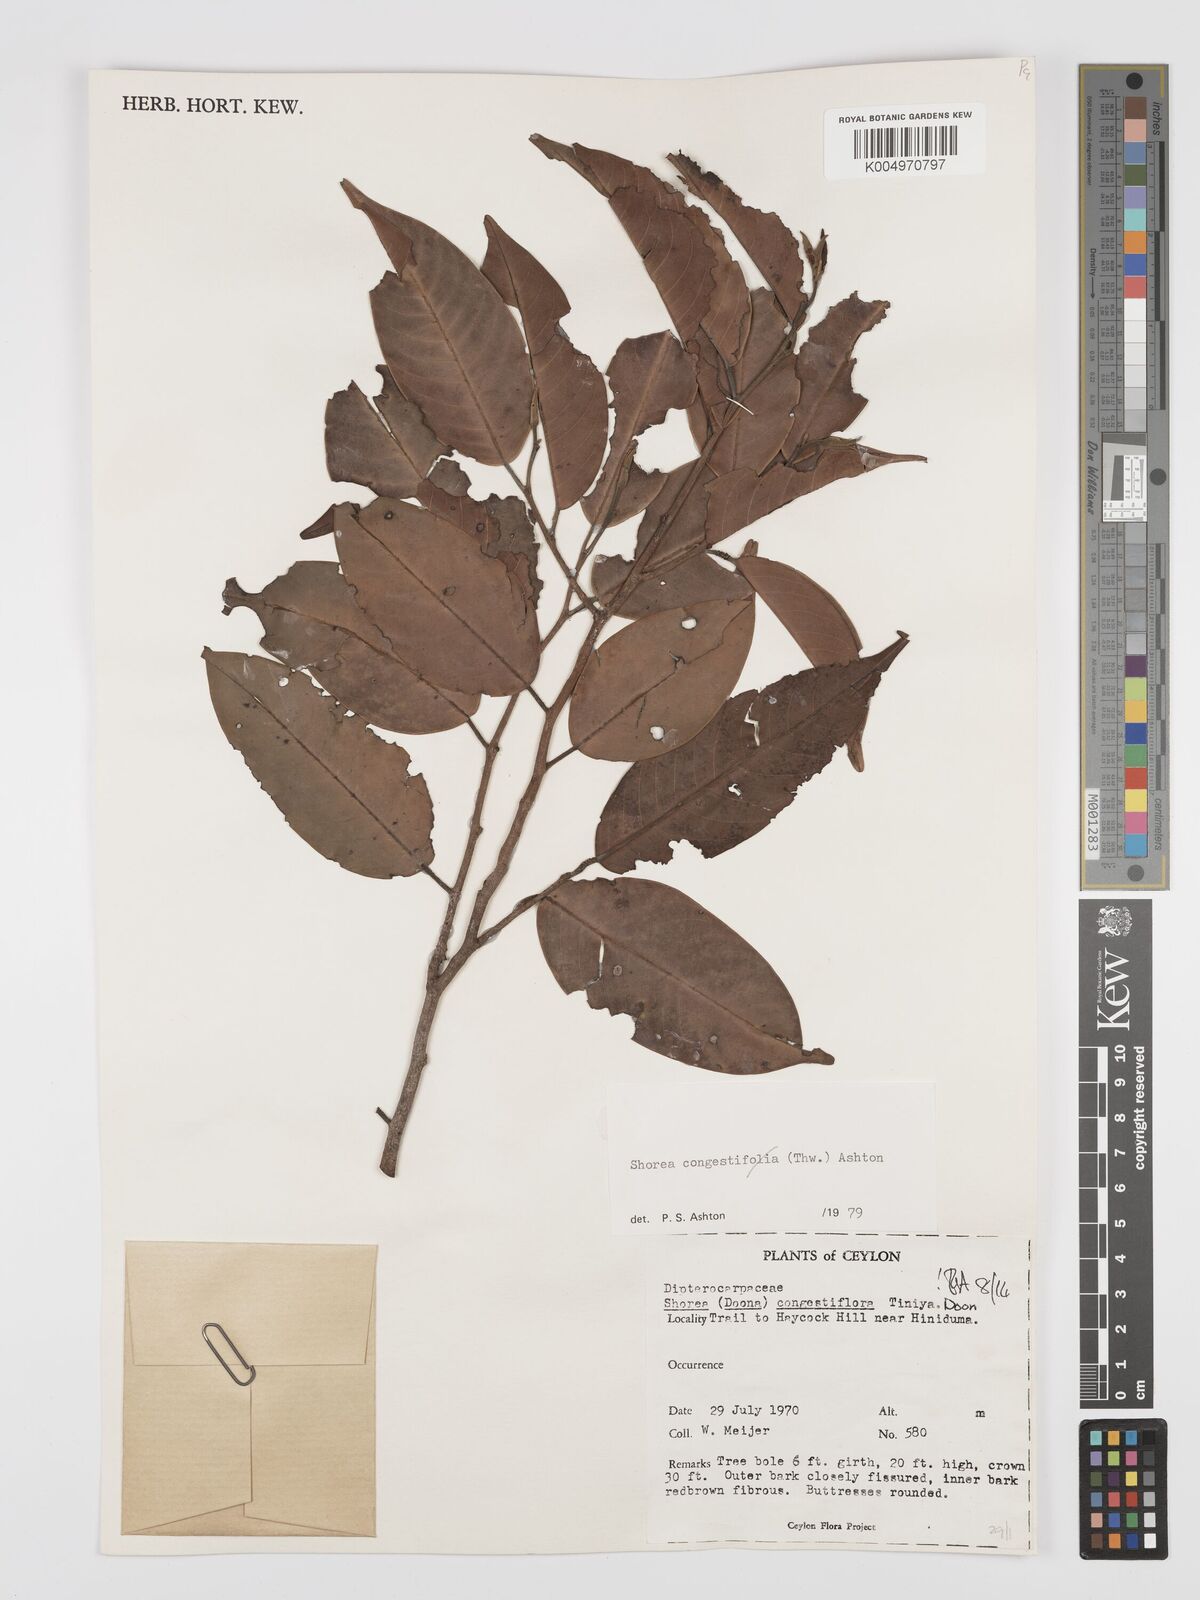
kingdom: Plantae
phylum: Tracheophyta
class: Magnoliopsida
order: Malvales
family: Dipterocarpaceae
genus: Doona
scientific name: Doona congestiflora
